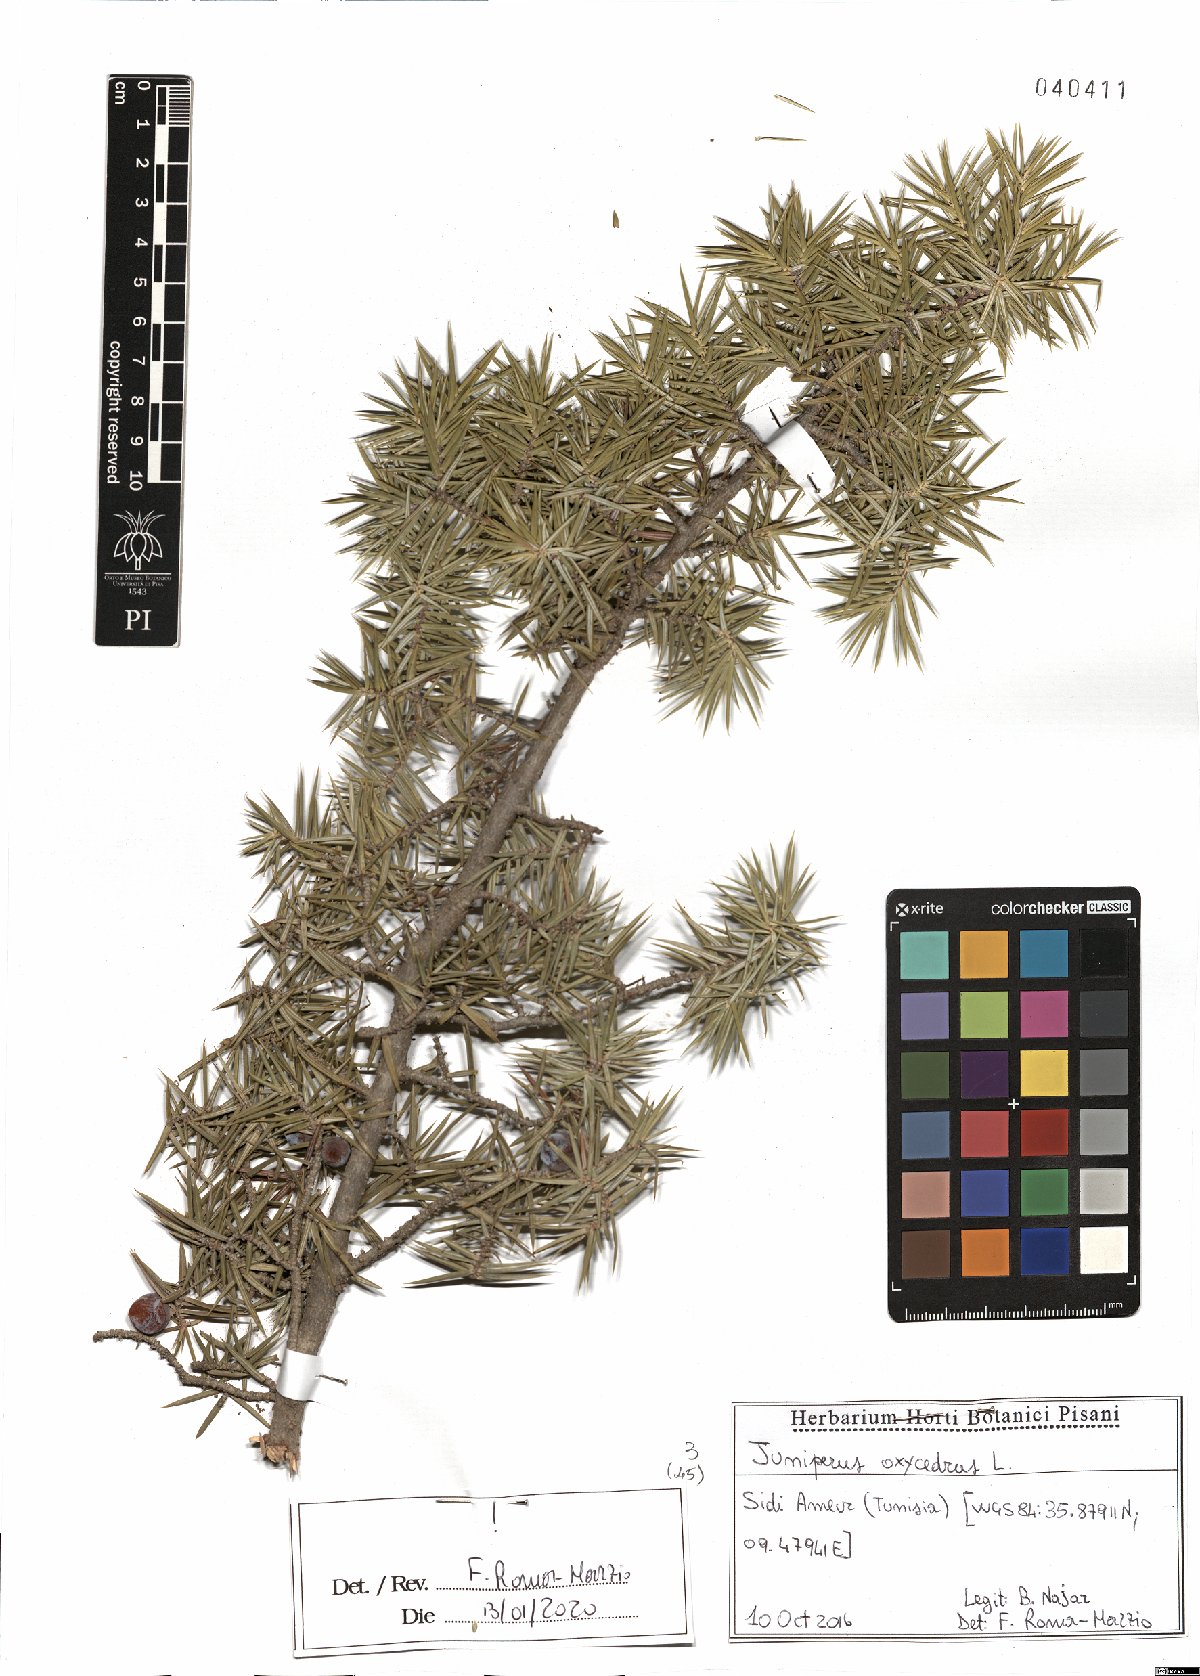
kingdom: Plantae
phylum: Tracheophyta
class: Pinopsida
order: Pinales
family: Cupressaceae
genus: Juniperus
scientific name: Juniperus oxycedrus
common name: Prickly juniper
